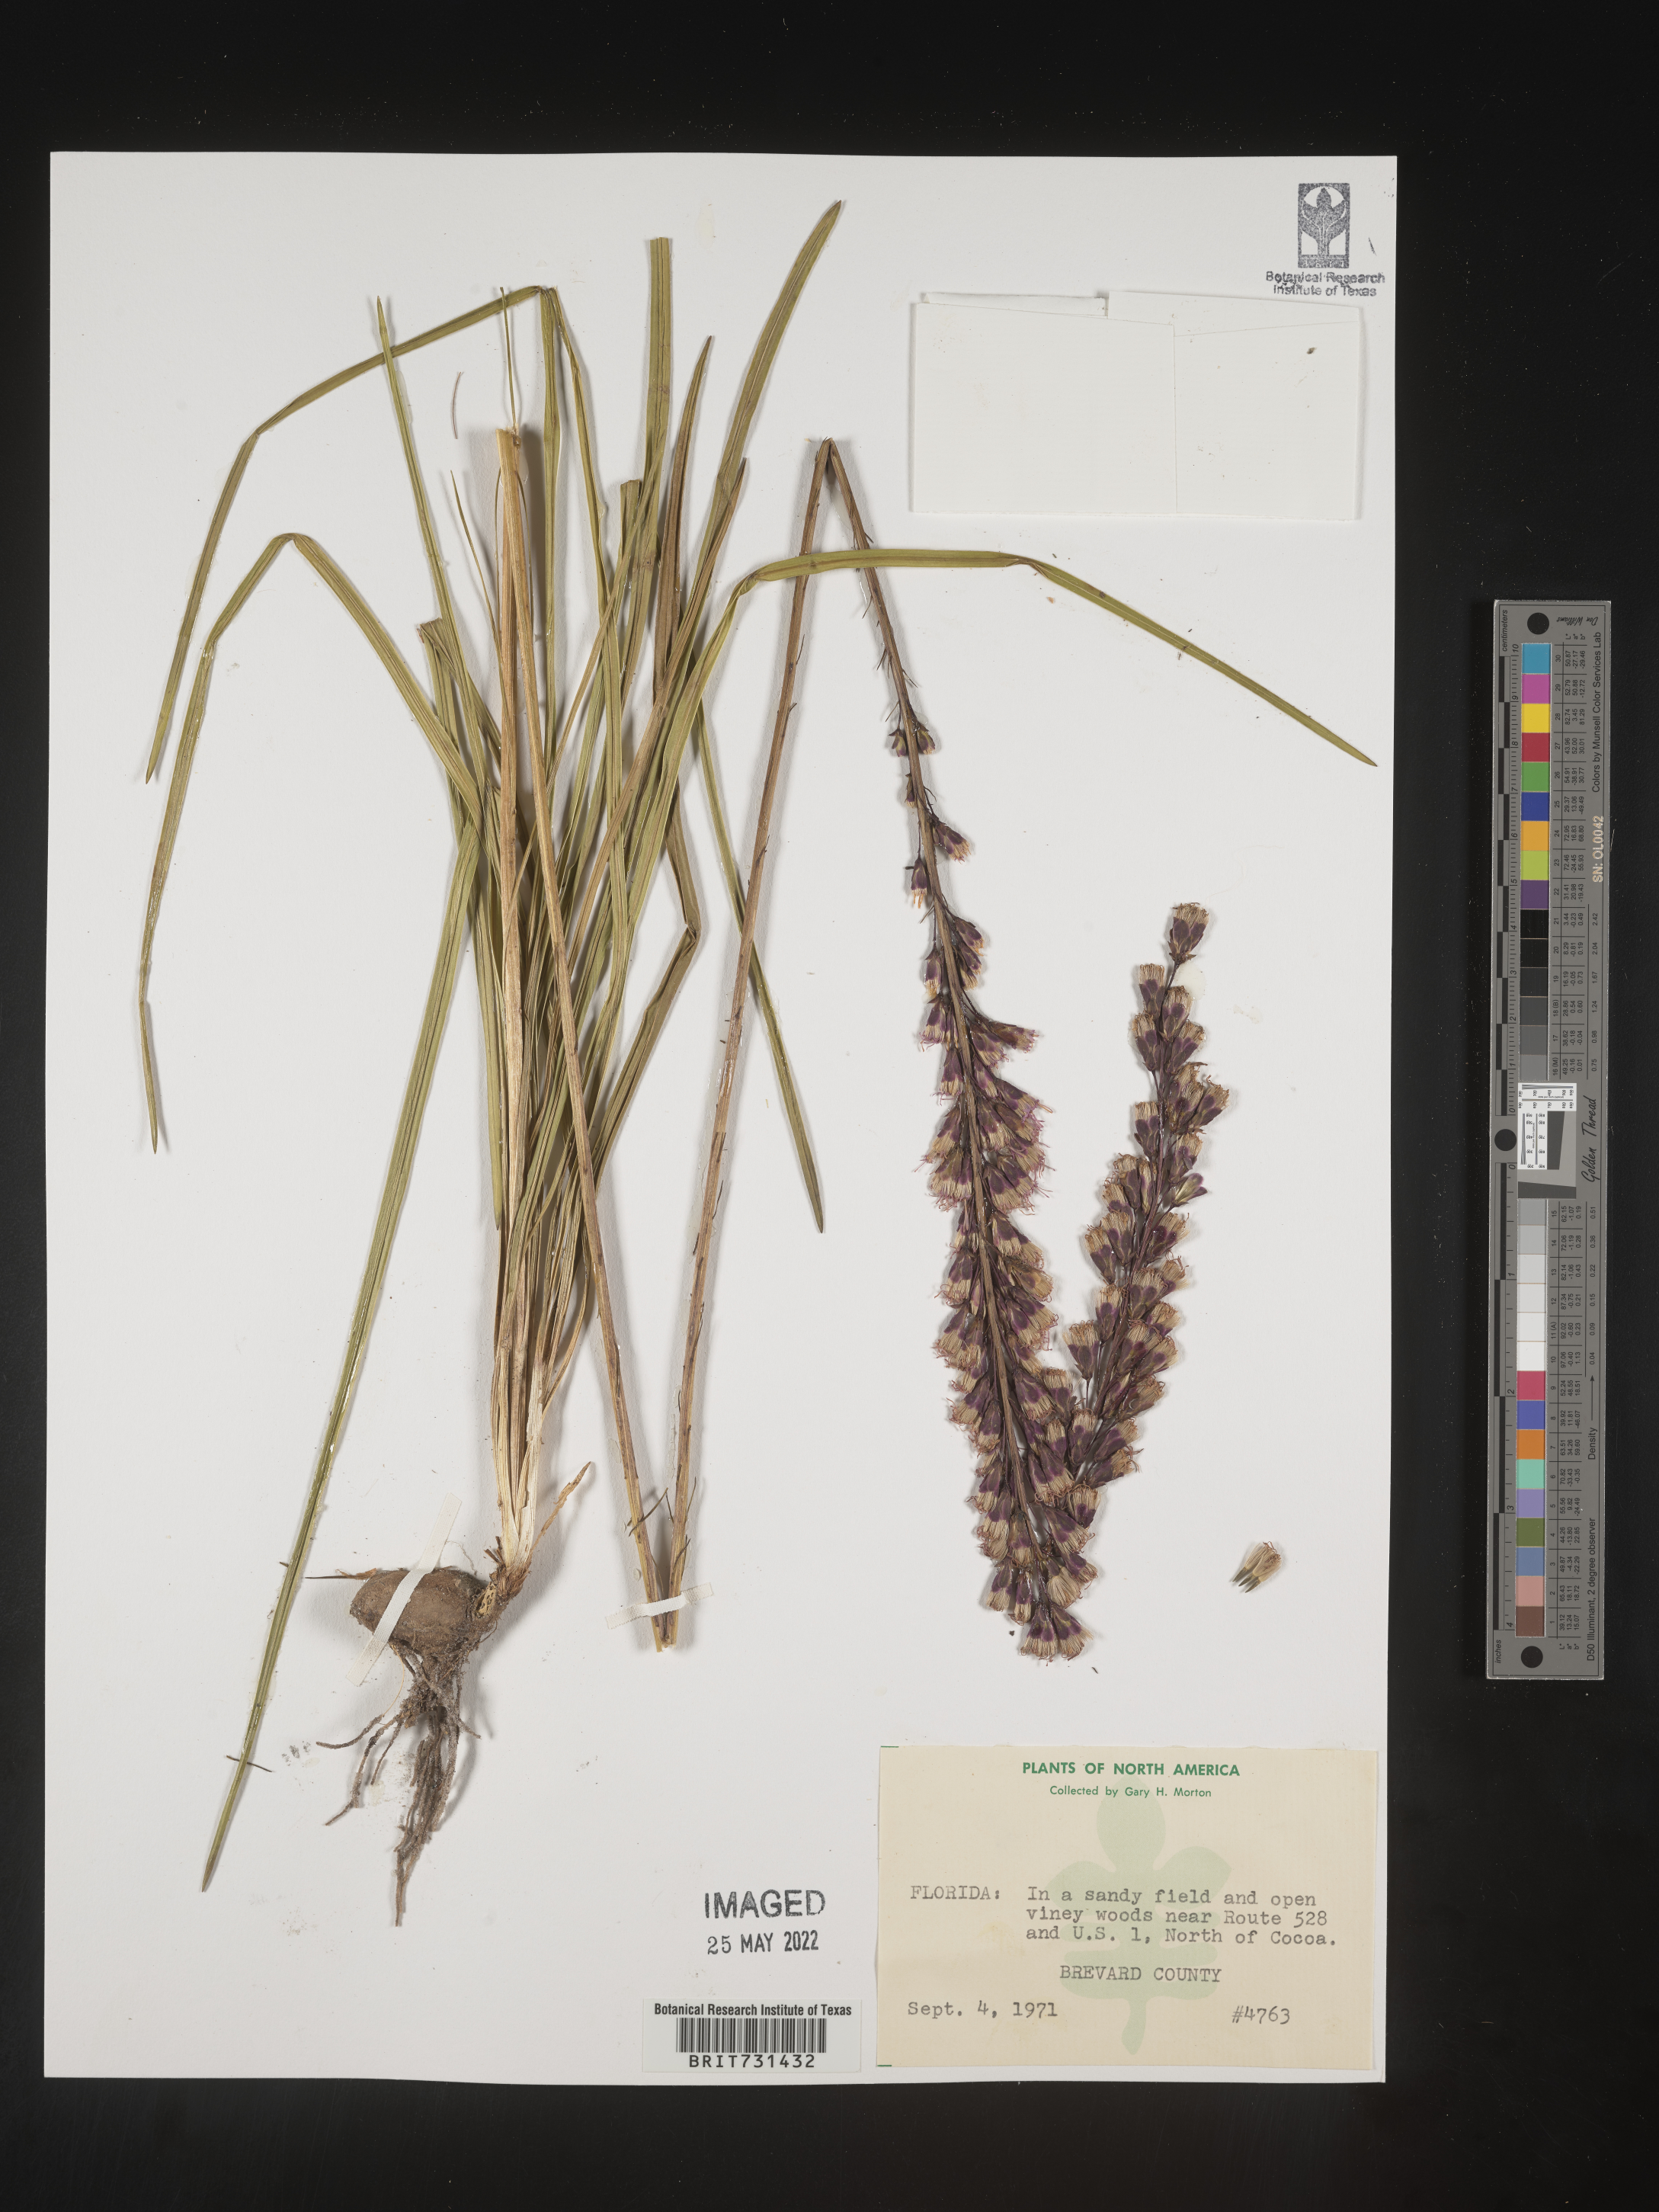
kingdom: Plantae
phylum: Tracheophyta
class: Magnoliopsida
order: Asterales
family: Asteraceae
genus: Liatris
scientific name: Liatris
